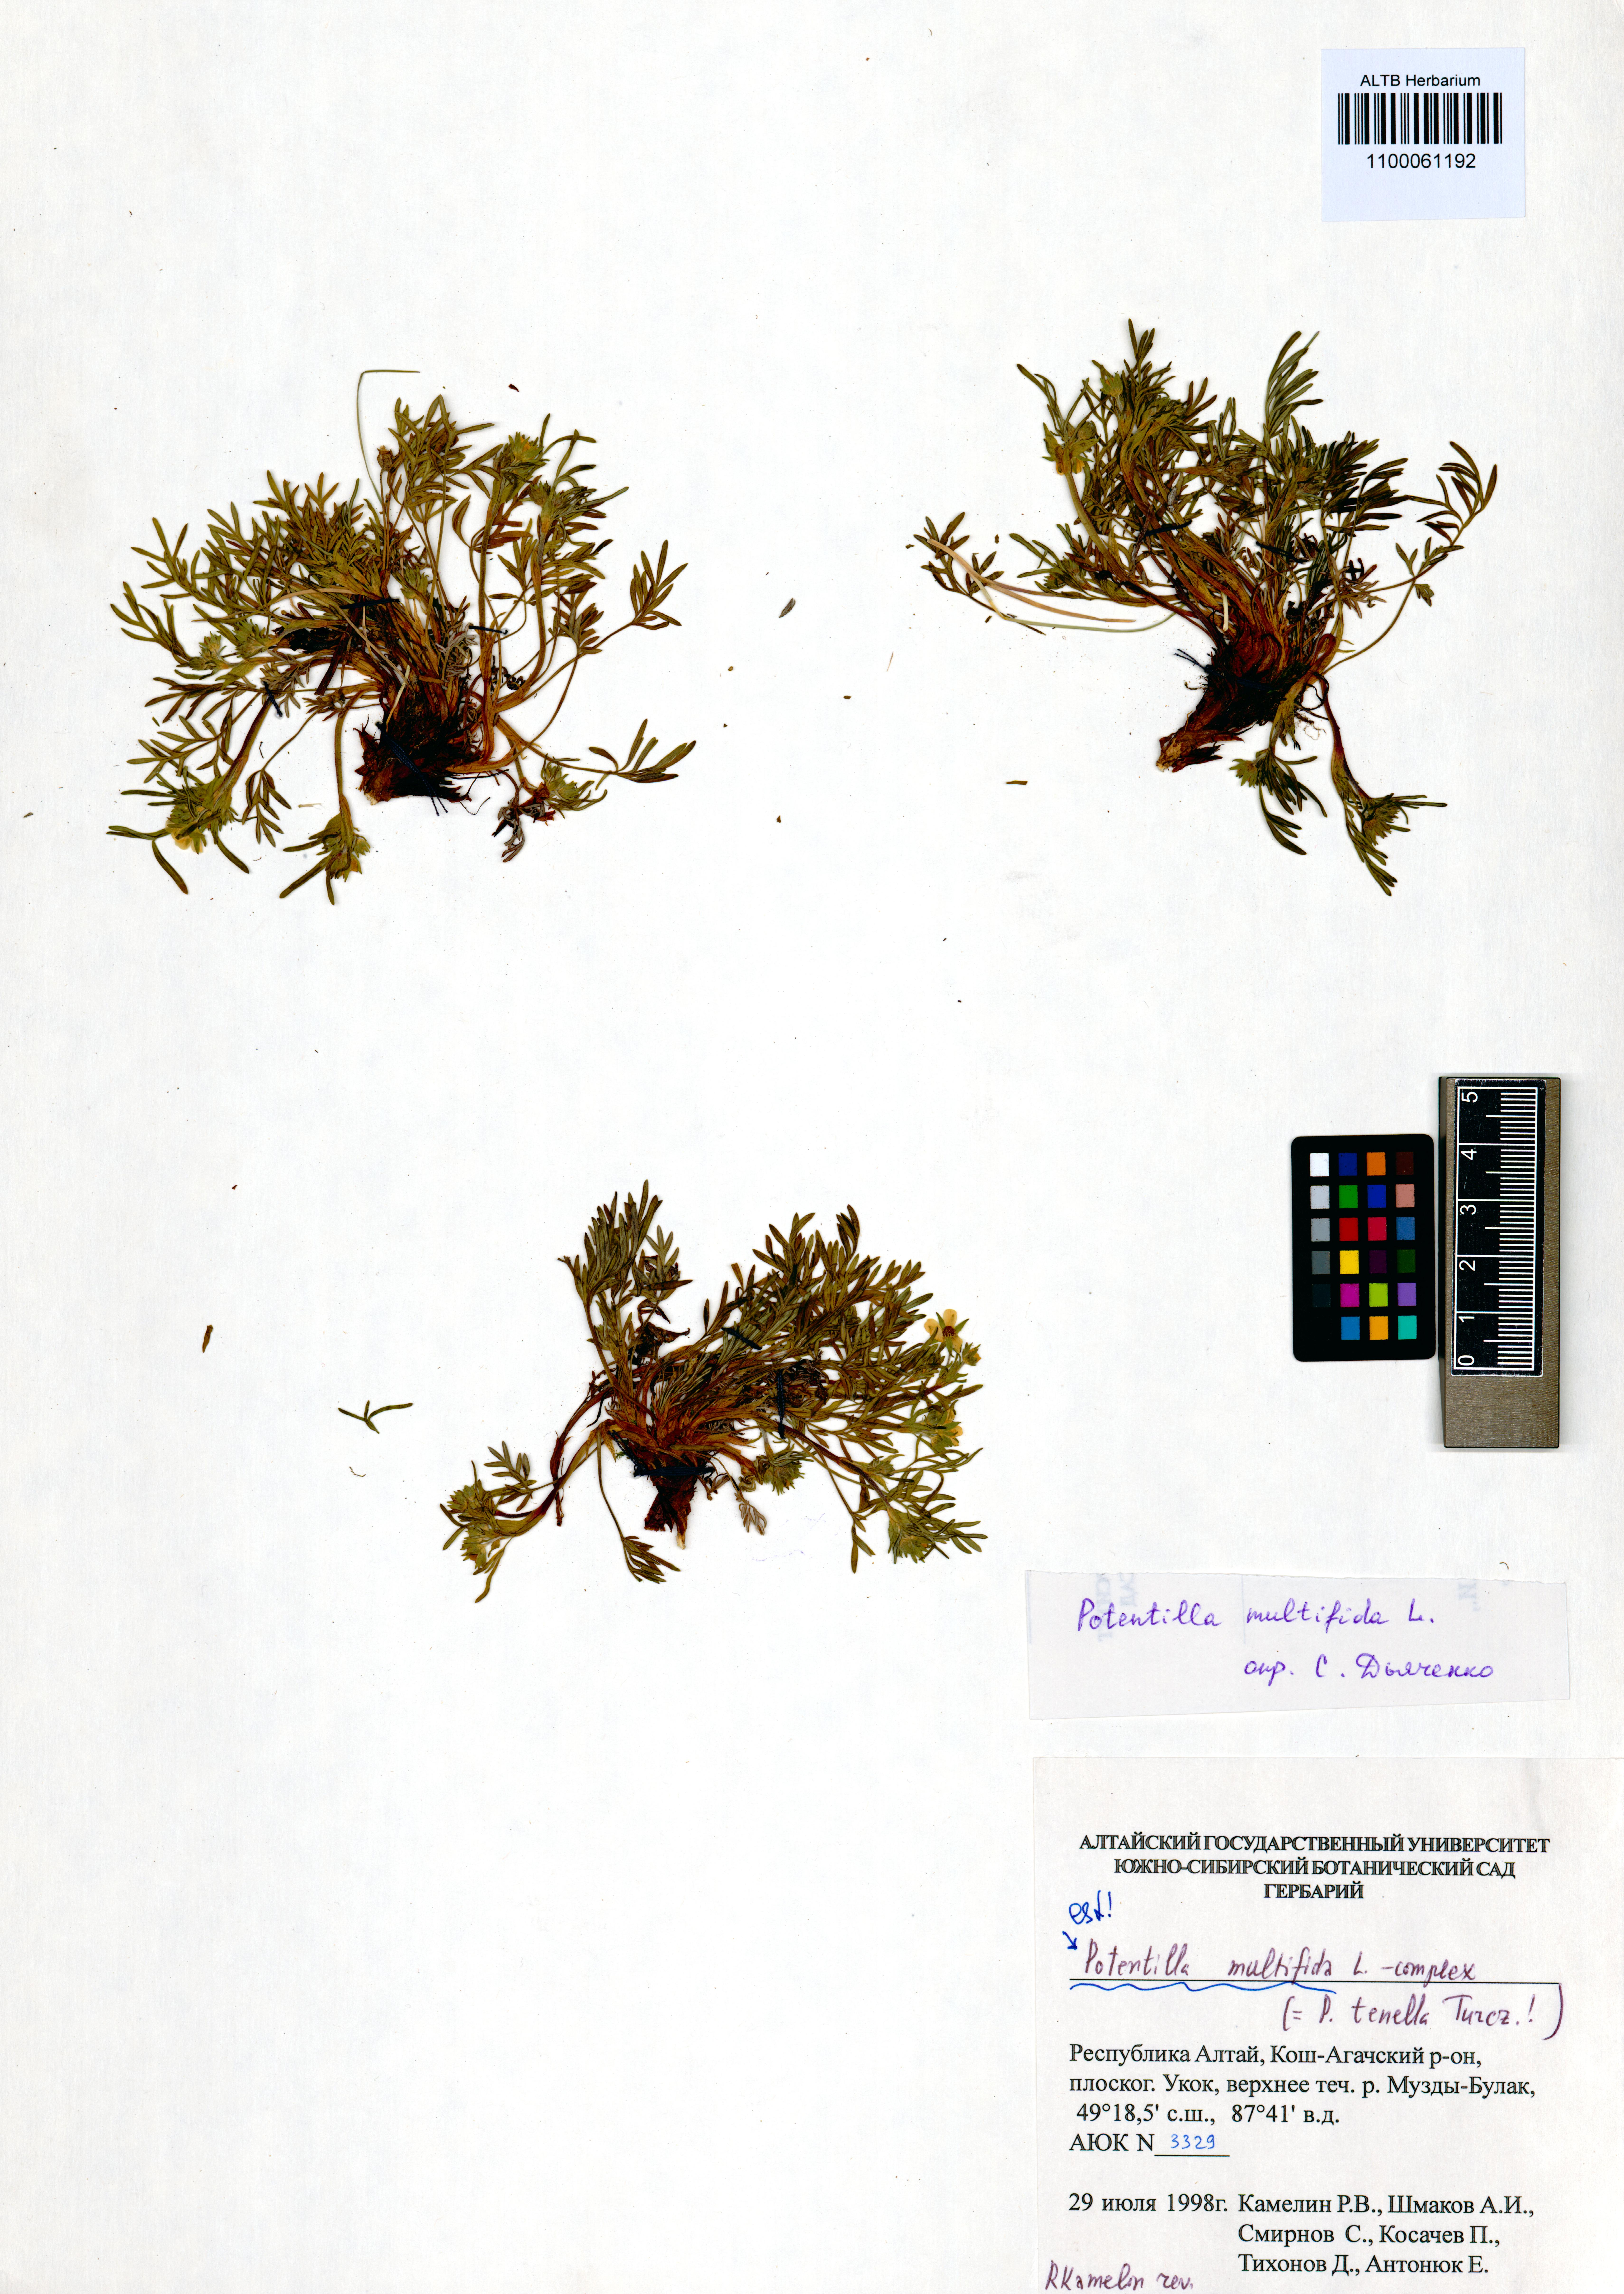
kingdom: Plantae
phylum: Tracheophyta
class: Magnoliopsida
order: Rosales
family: Rosaceae
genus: Potentilla
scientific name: Potentilla multifida
